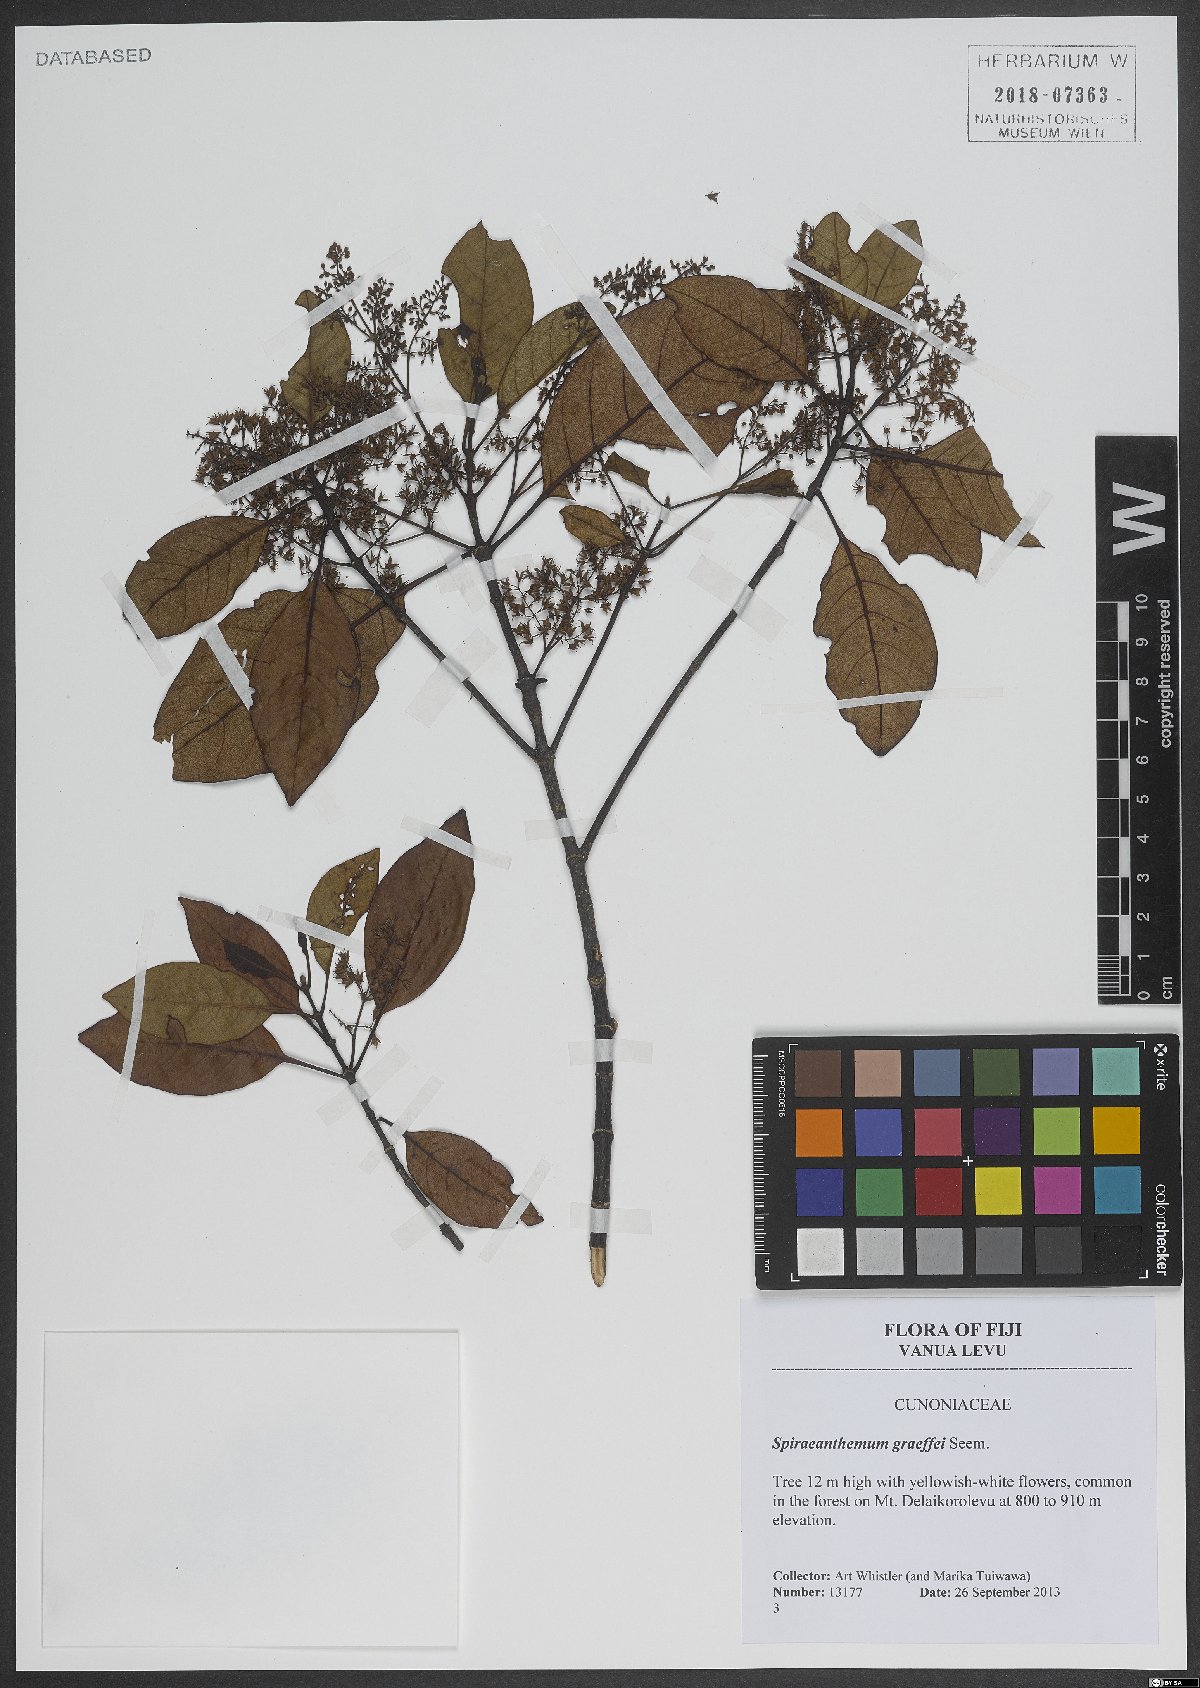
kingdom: Plantae
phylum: Tracheophyta
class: Magnoliopsida
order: Oxalidales
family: Cunoniaceae
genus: Spiraeanthemum
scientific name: Spiraeanthemum graeffei
